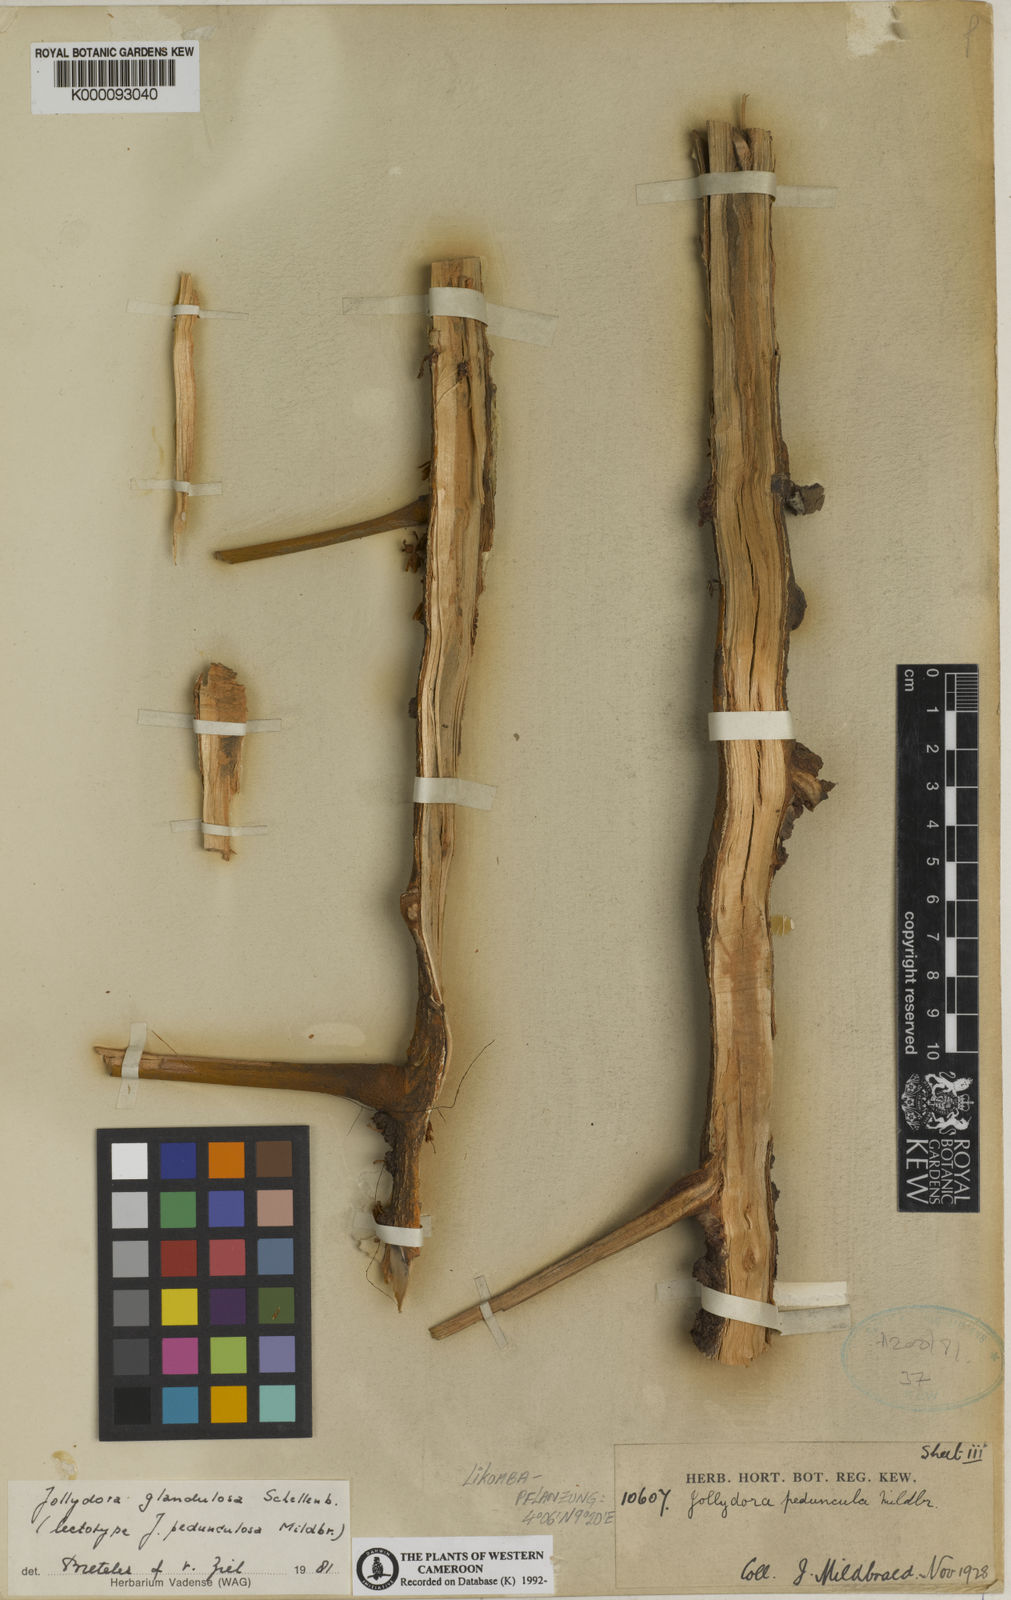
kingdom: Plantae
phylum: Tracheophyta
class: Magnoliopsida
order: Oxalidales
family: Connaraceae
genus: Jollydora
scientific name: Jollydora glandulosa
